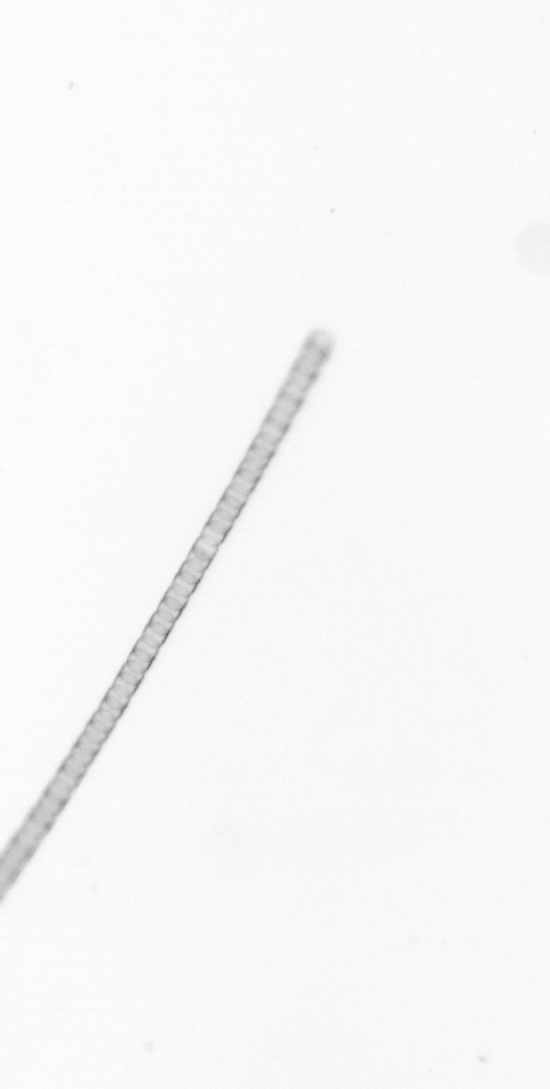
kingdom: Chromista
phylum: Ochrophyta
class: Bacillariophyceae
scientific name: Bacillariophyceae
